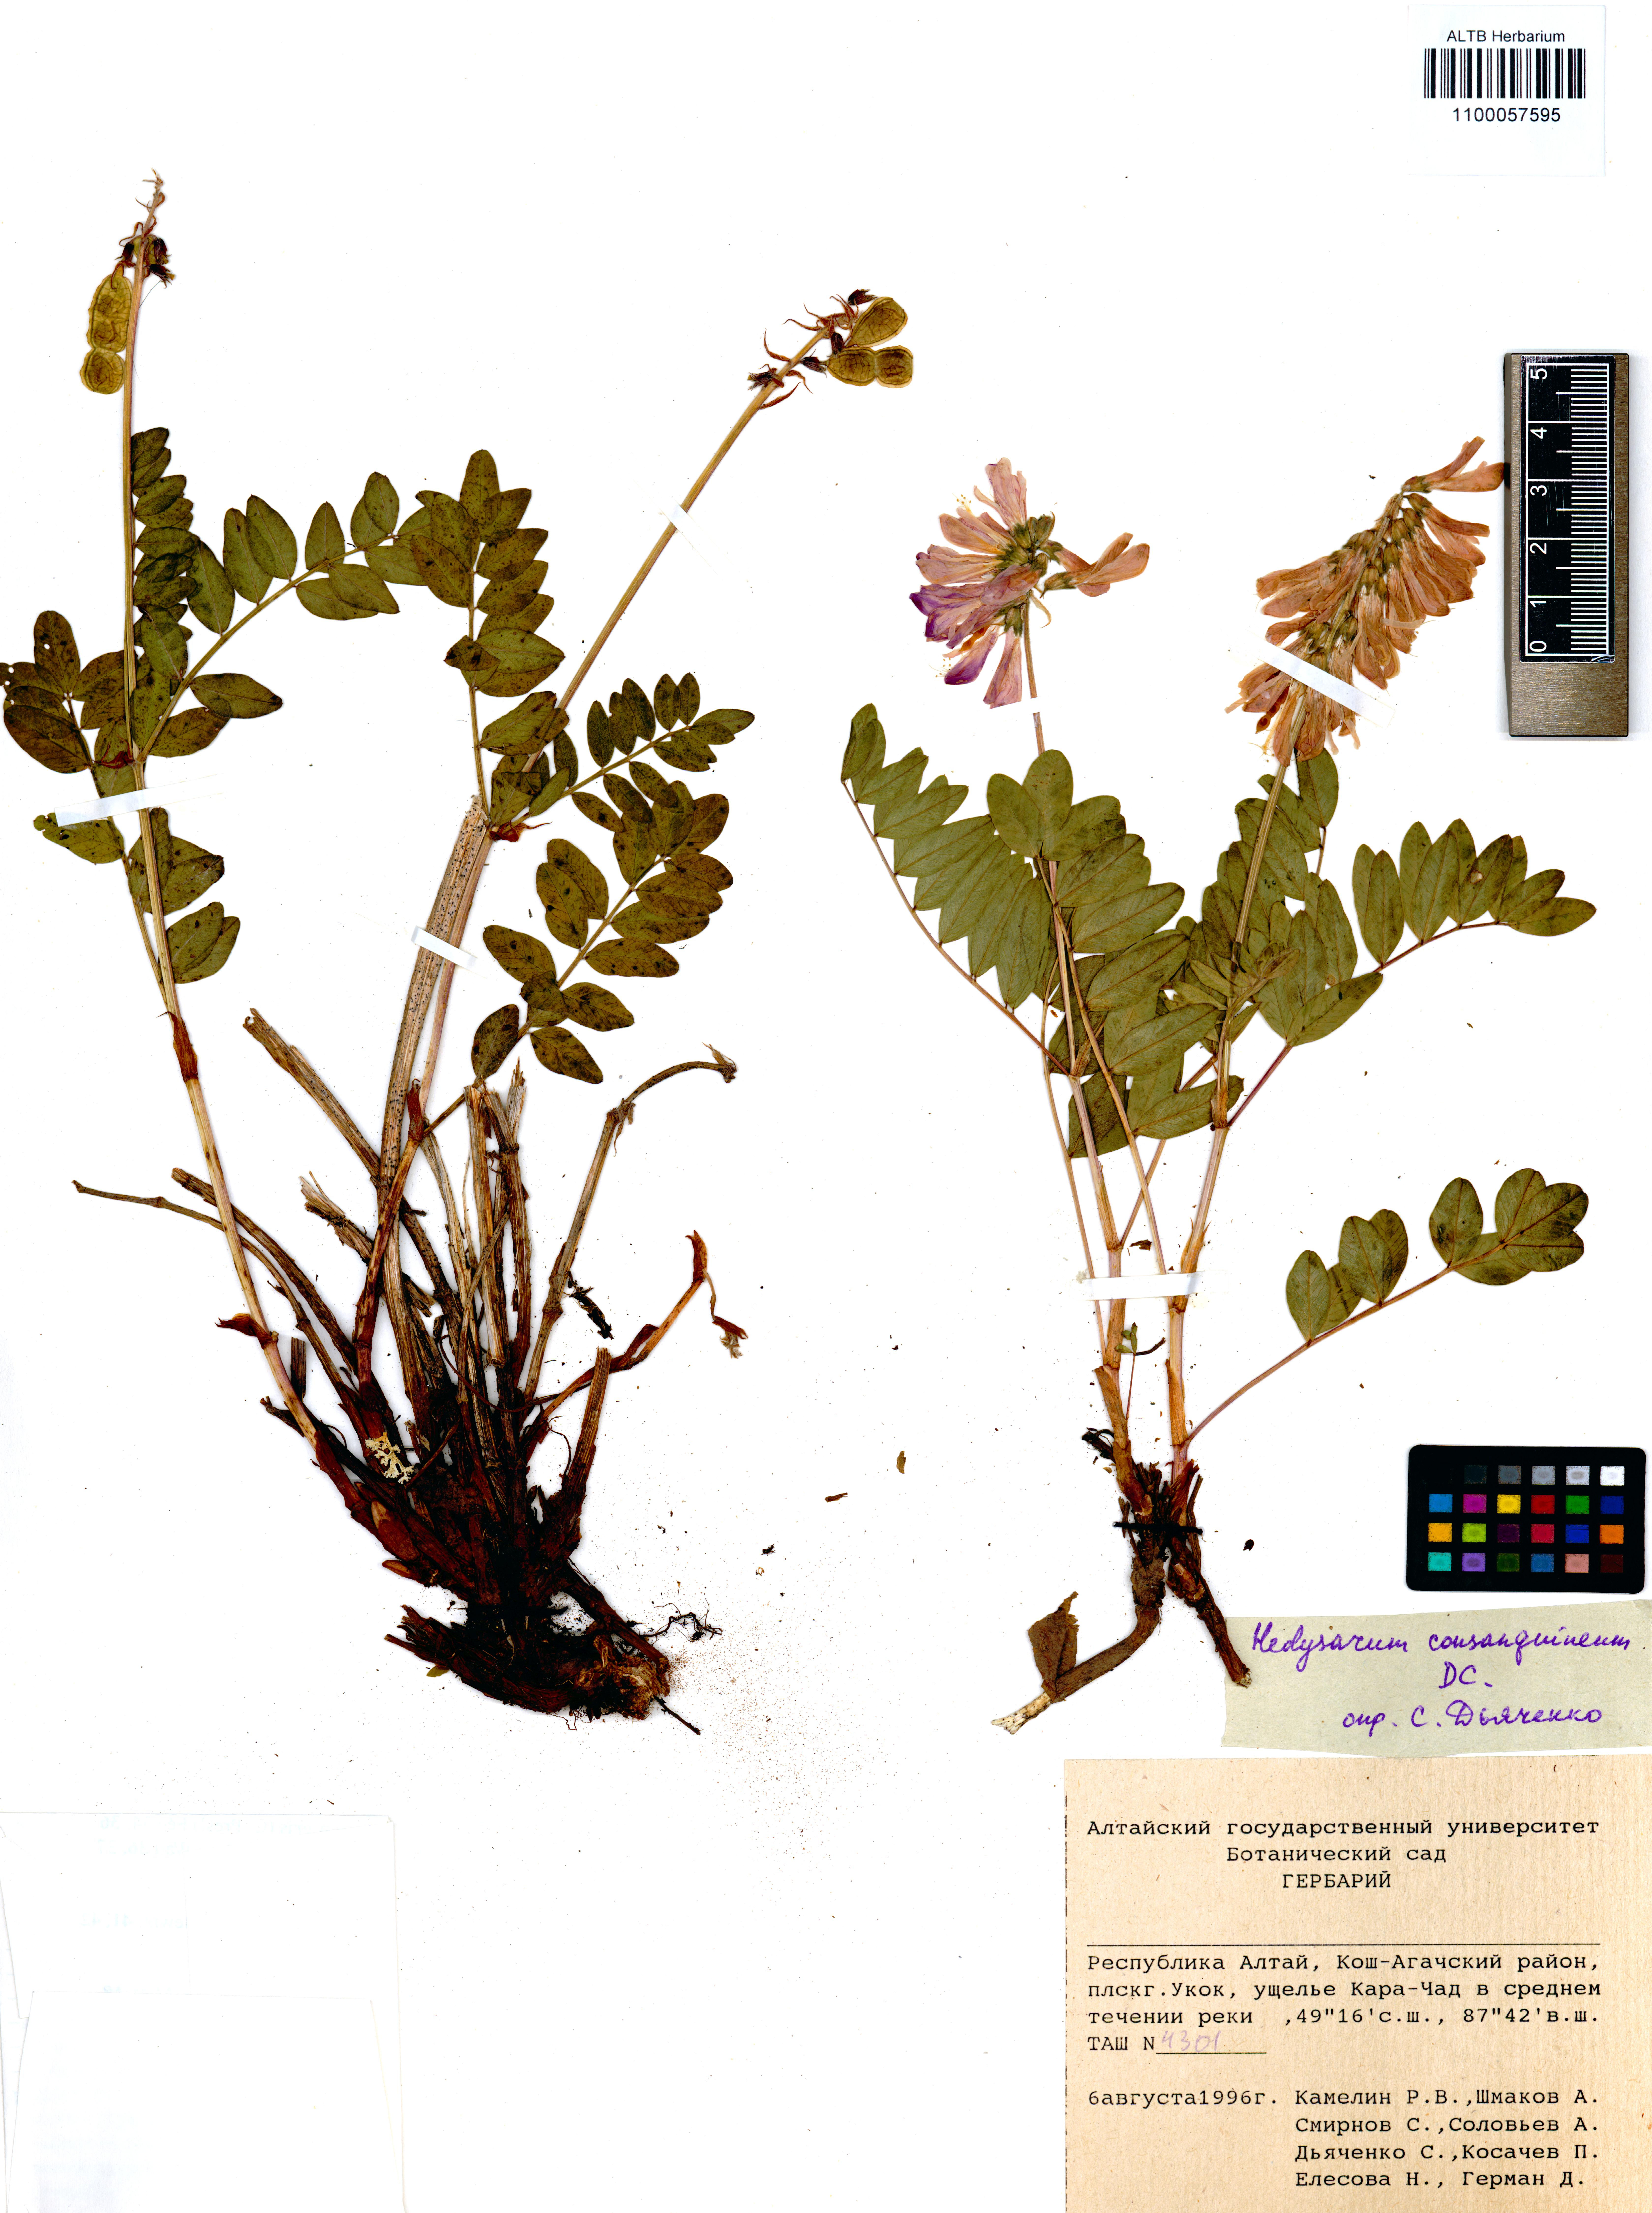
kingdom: Plantae
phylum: Tracheophyta
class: Magnoliopsida
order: Fabales
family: Fabaceae
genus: Hedysarum
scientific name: Hedysarum consanguineum
